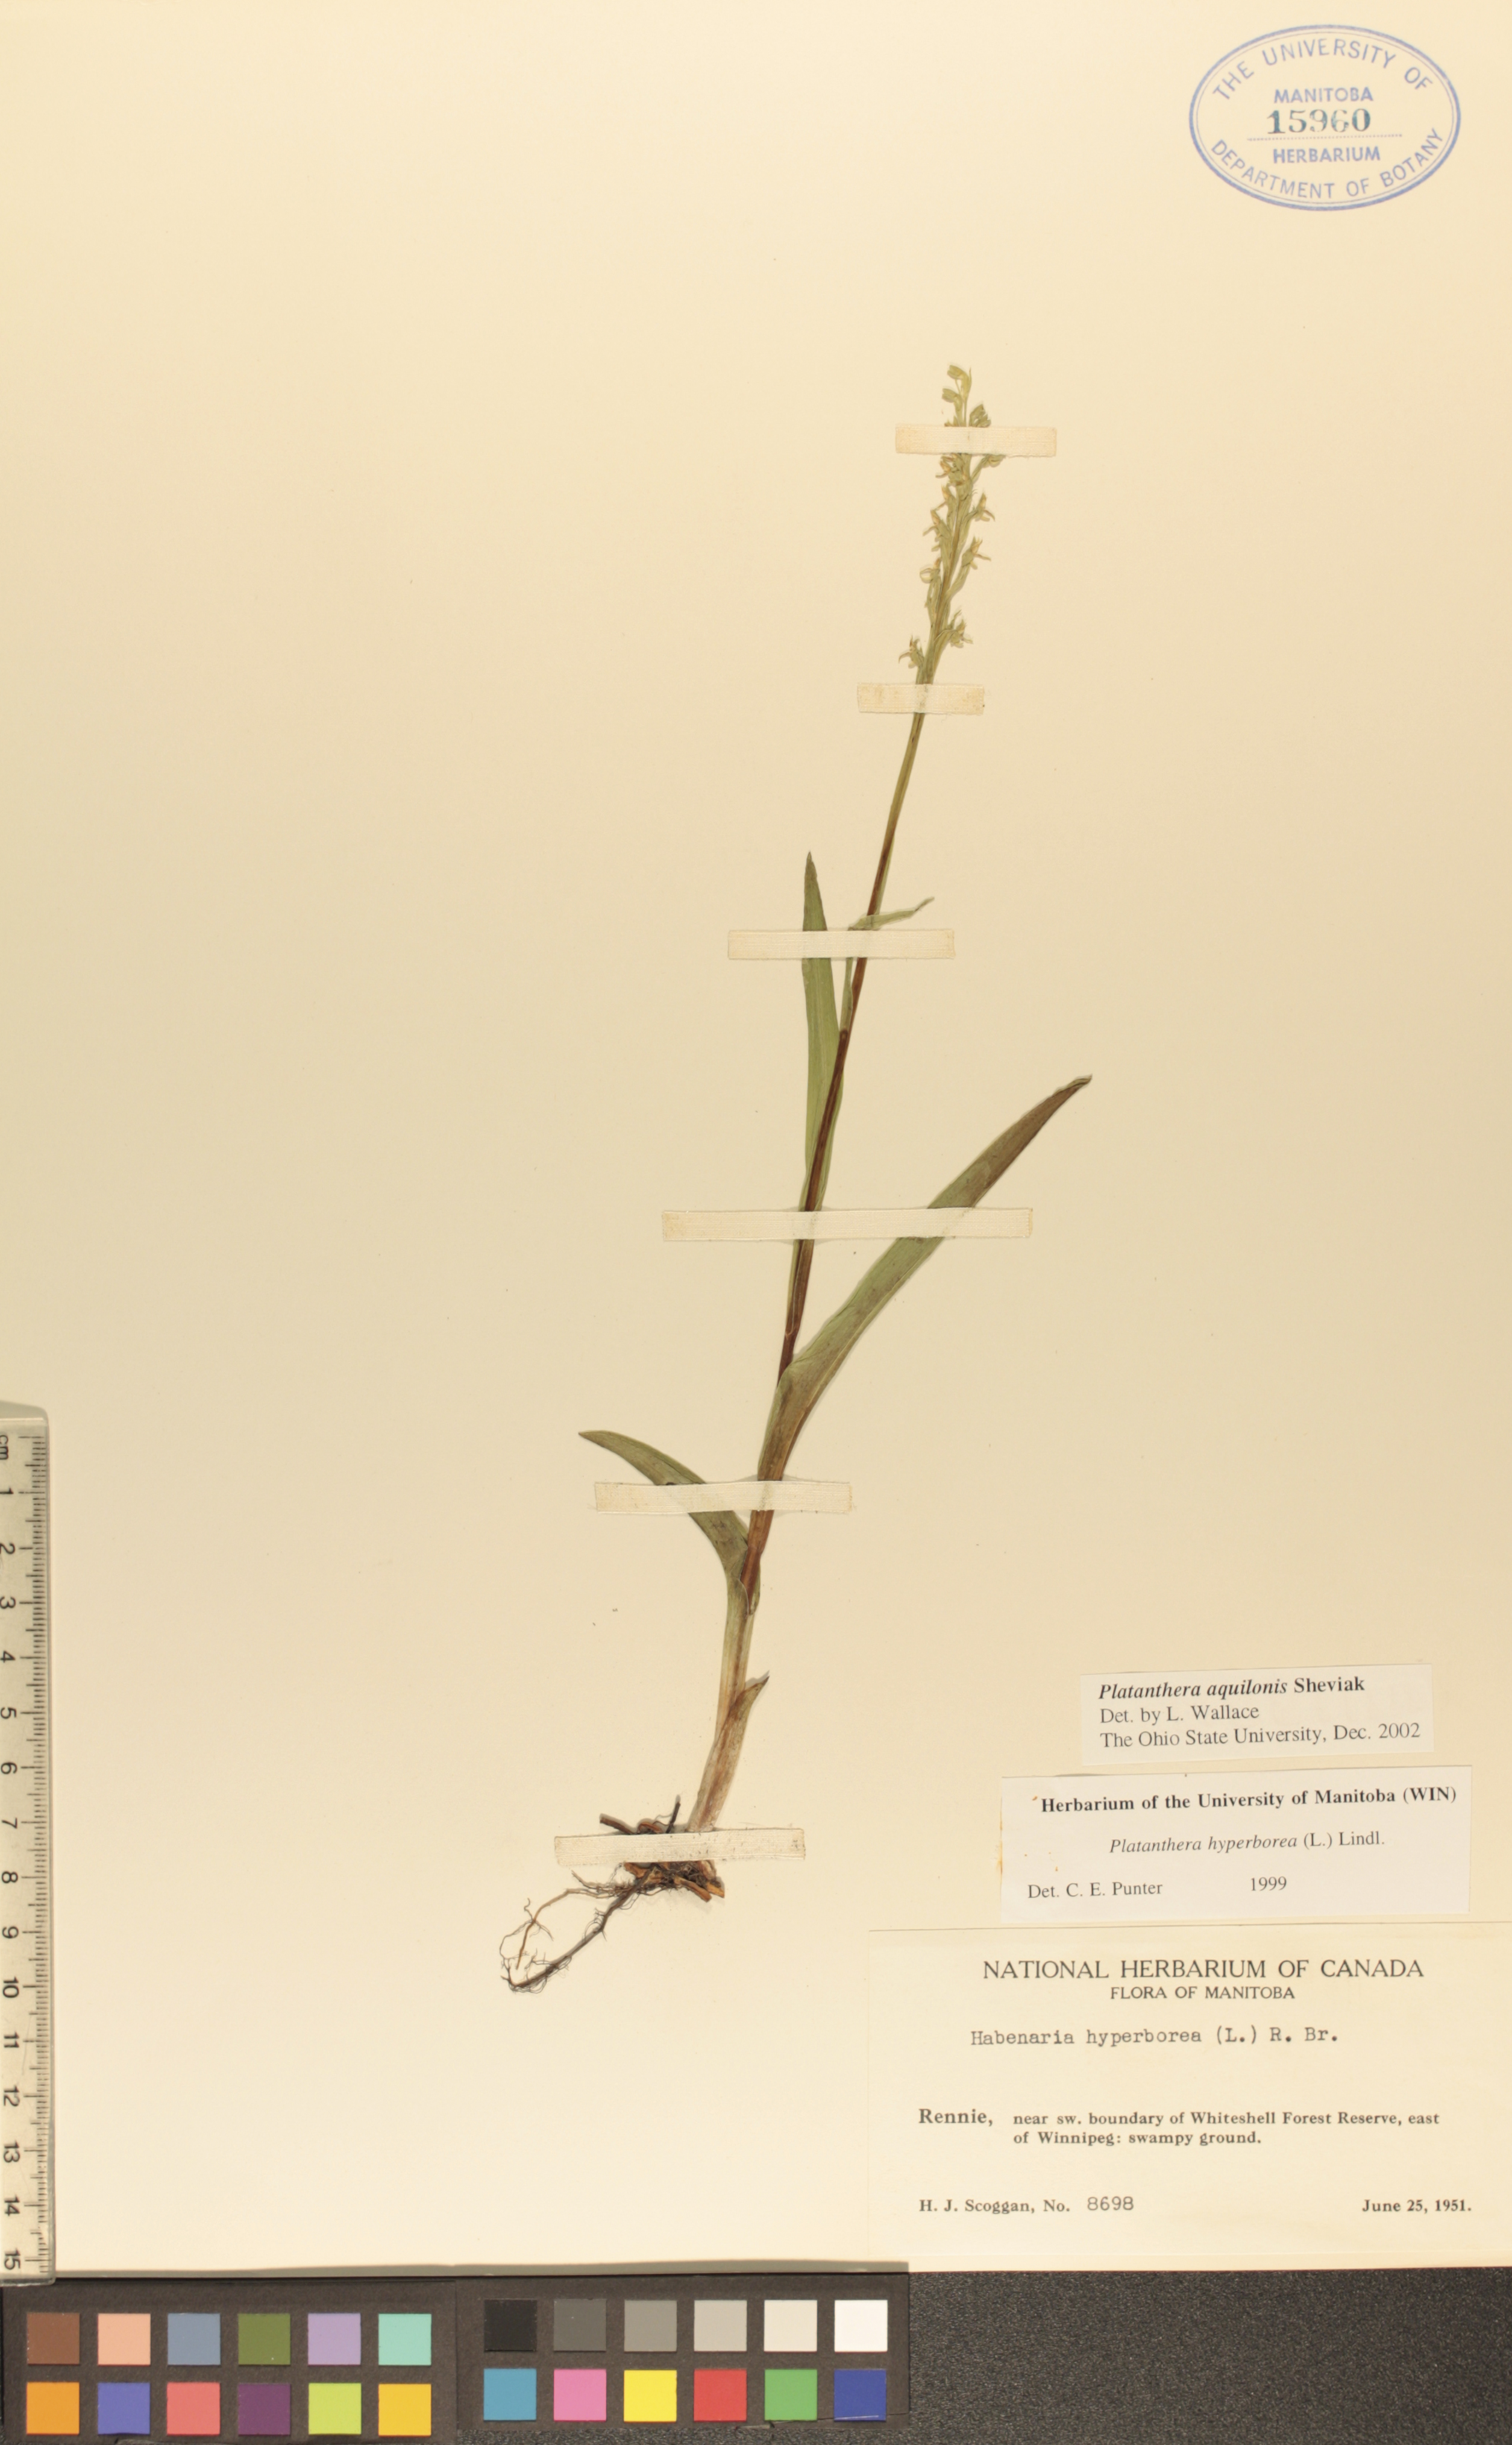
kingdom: Plantae
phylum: Tracheophyta
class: Liliopsida
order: Asparagales
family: Orchidaceae
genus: Platanthera
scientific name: Platanthera aquilonis
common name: Northern green orchid
